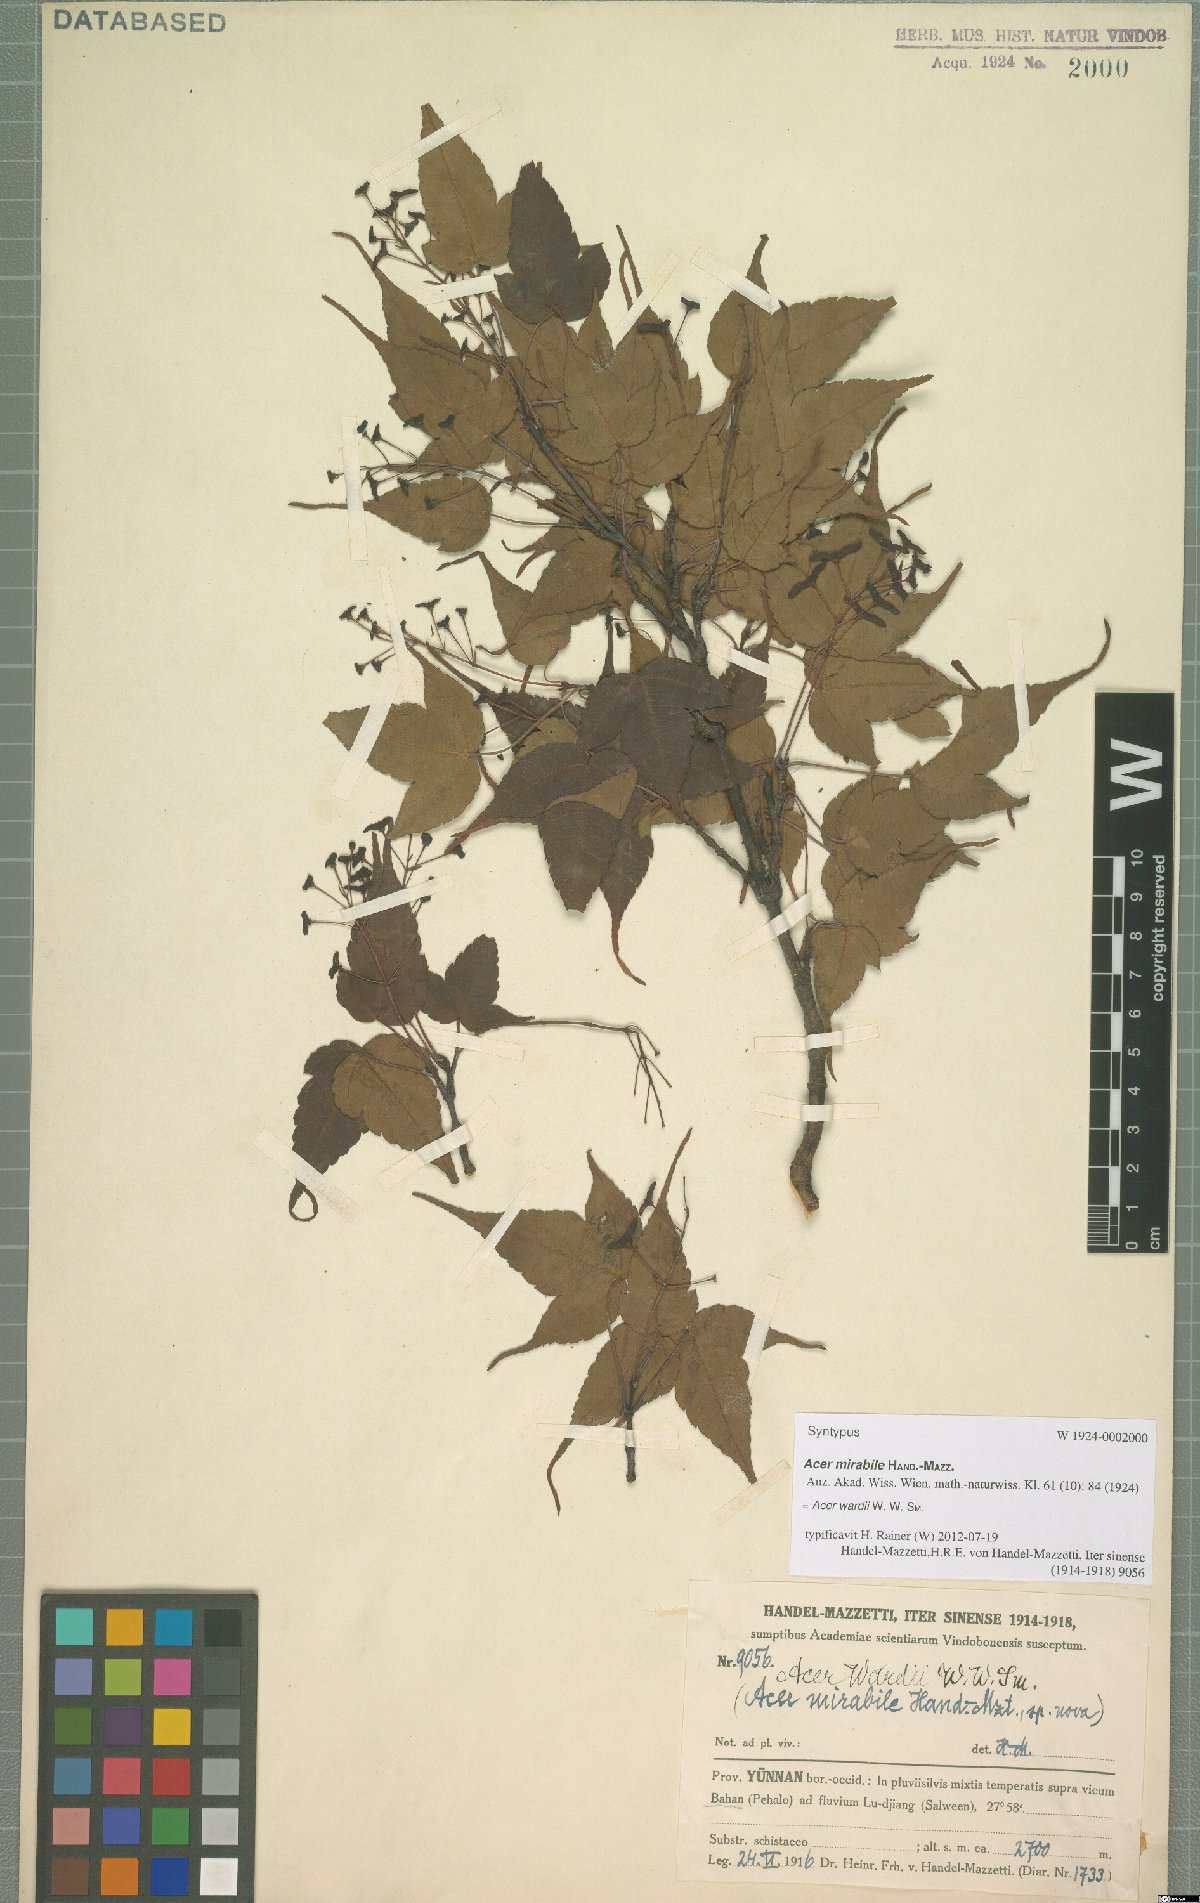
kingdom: Plantae
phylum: Tracheophyta
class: Magnoliopsida
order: Sapindales
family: Sapindaceae
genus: Acer
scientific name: Acer wardii
